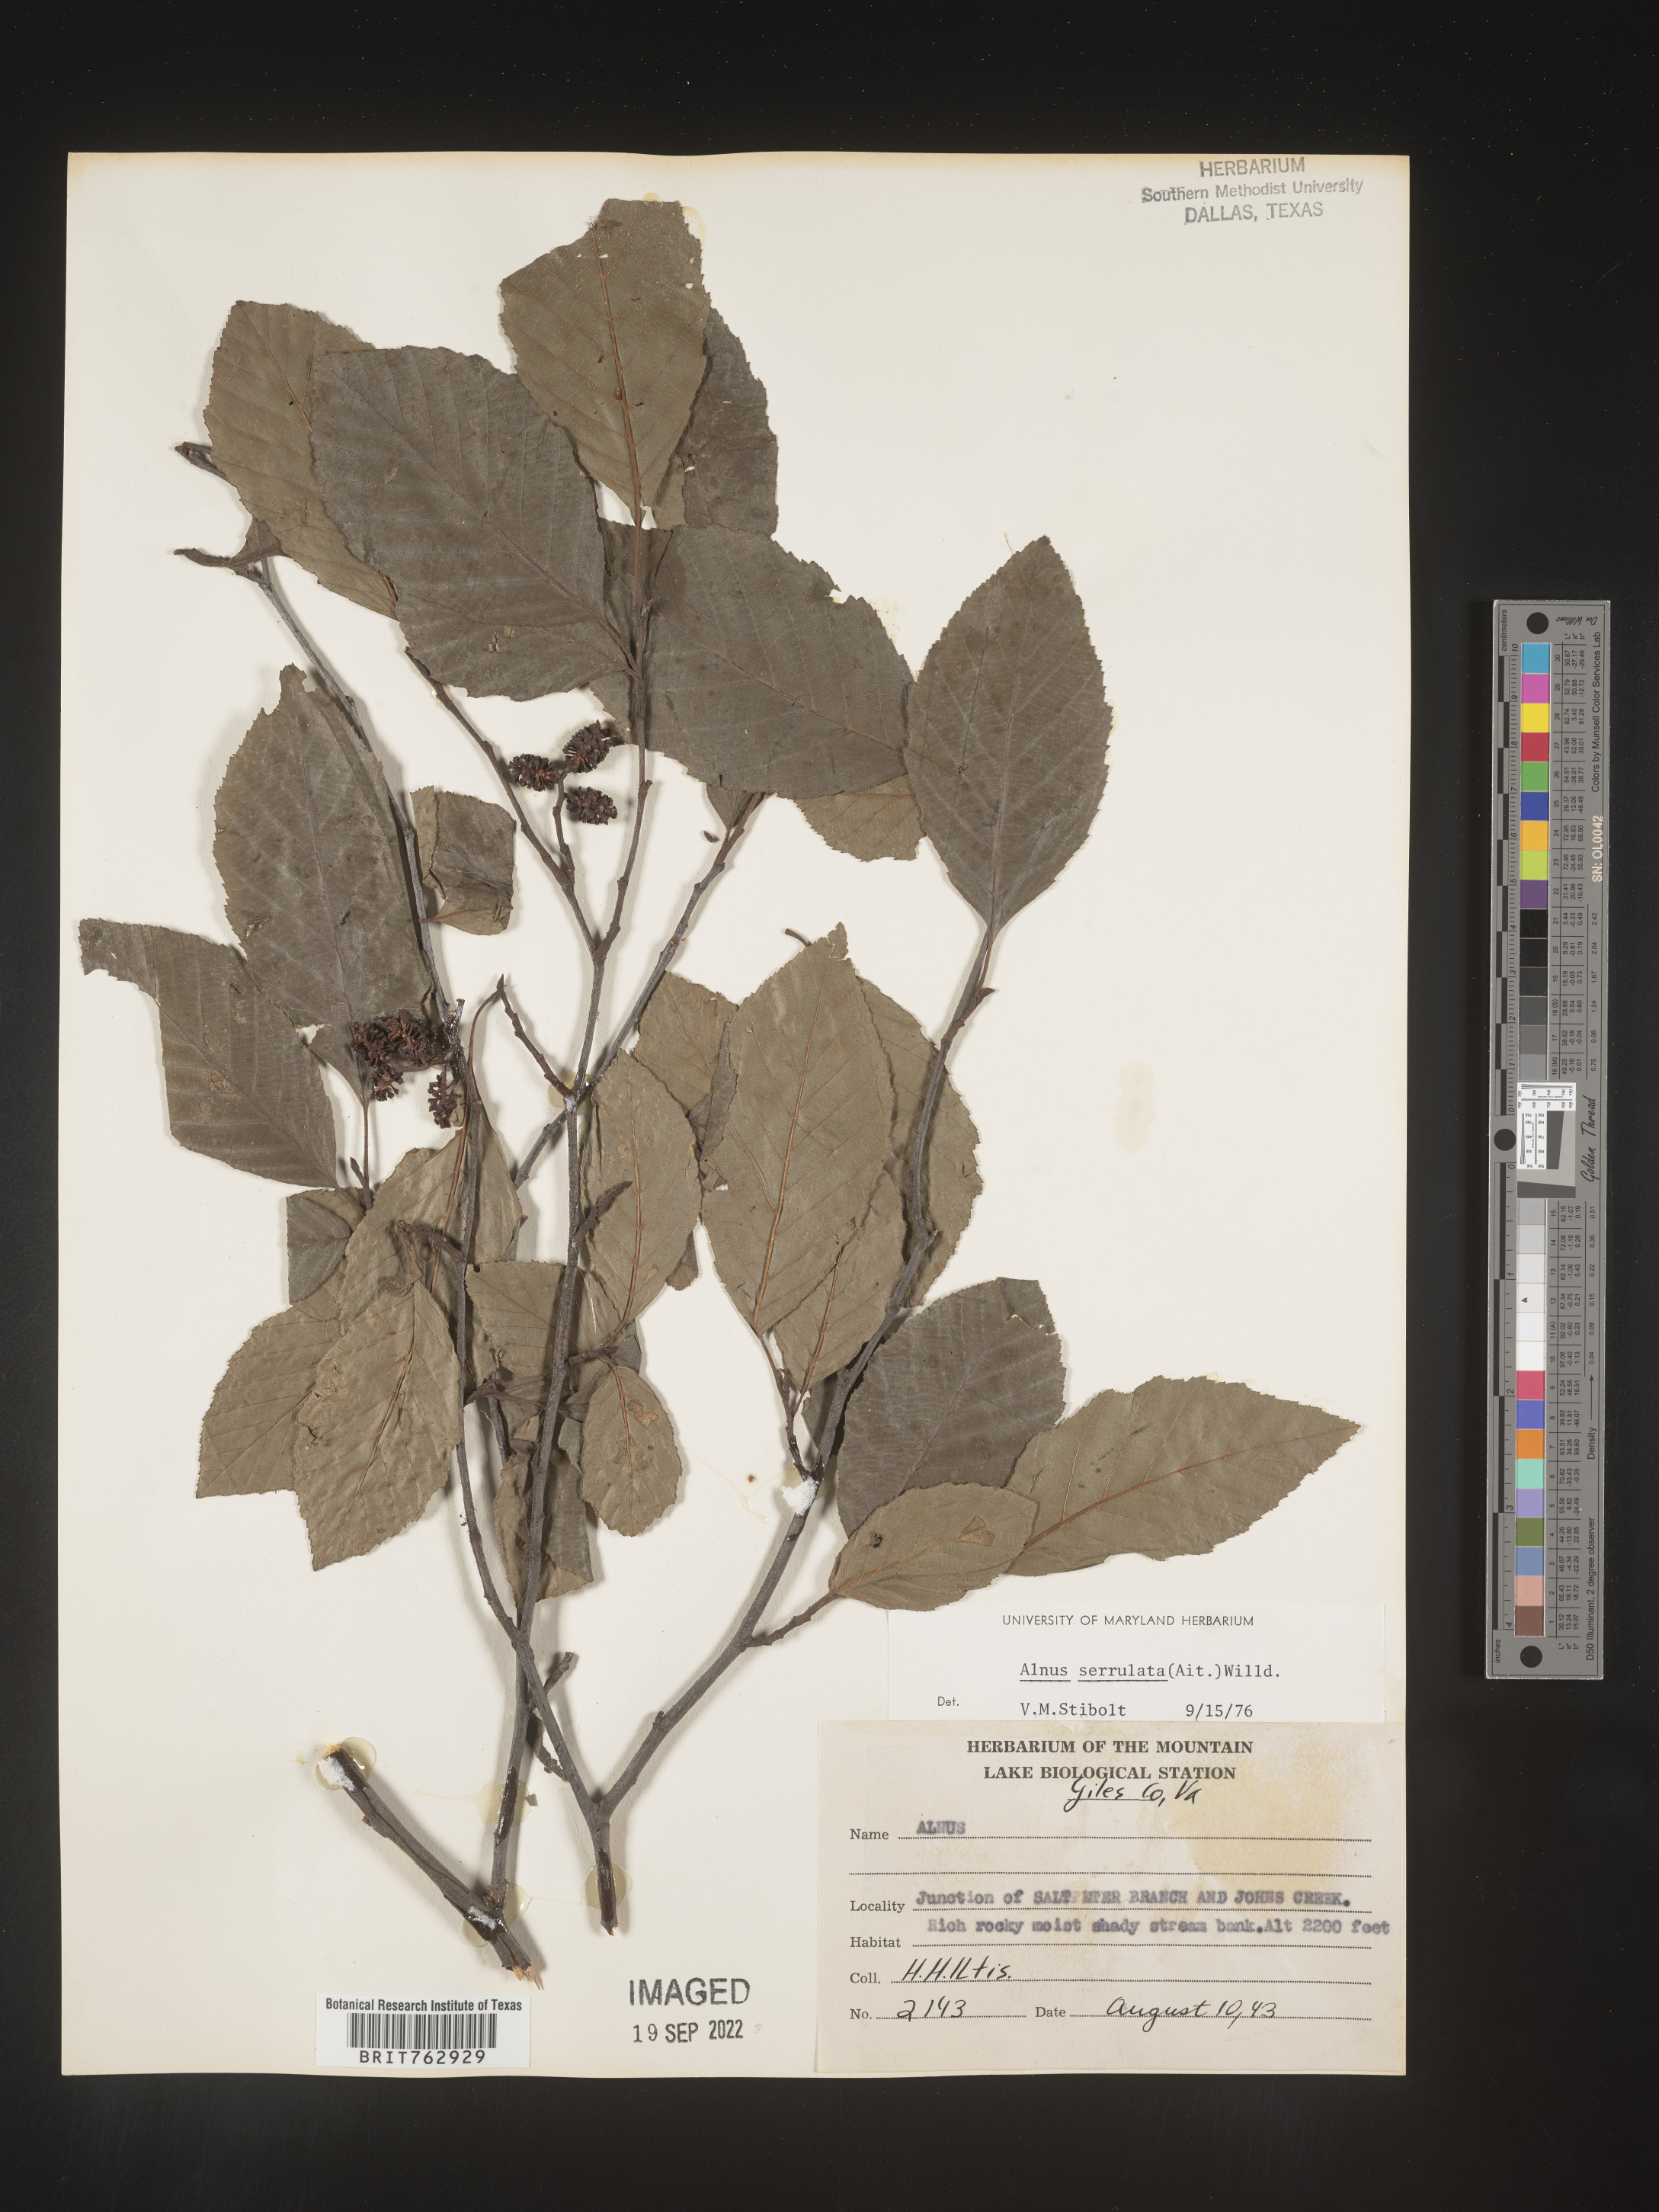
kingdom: Plantae
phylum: Tracheophyta
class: Magnoliopsida
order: Fagales
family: Betulaceae
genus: Alnus
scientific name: Alnus serrulata
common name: Hazel alder
